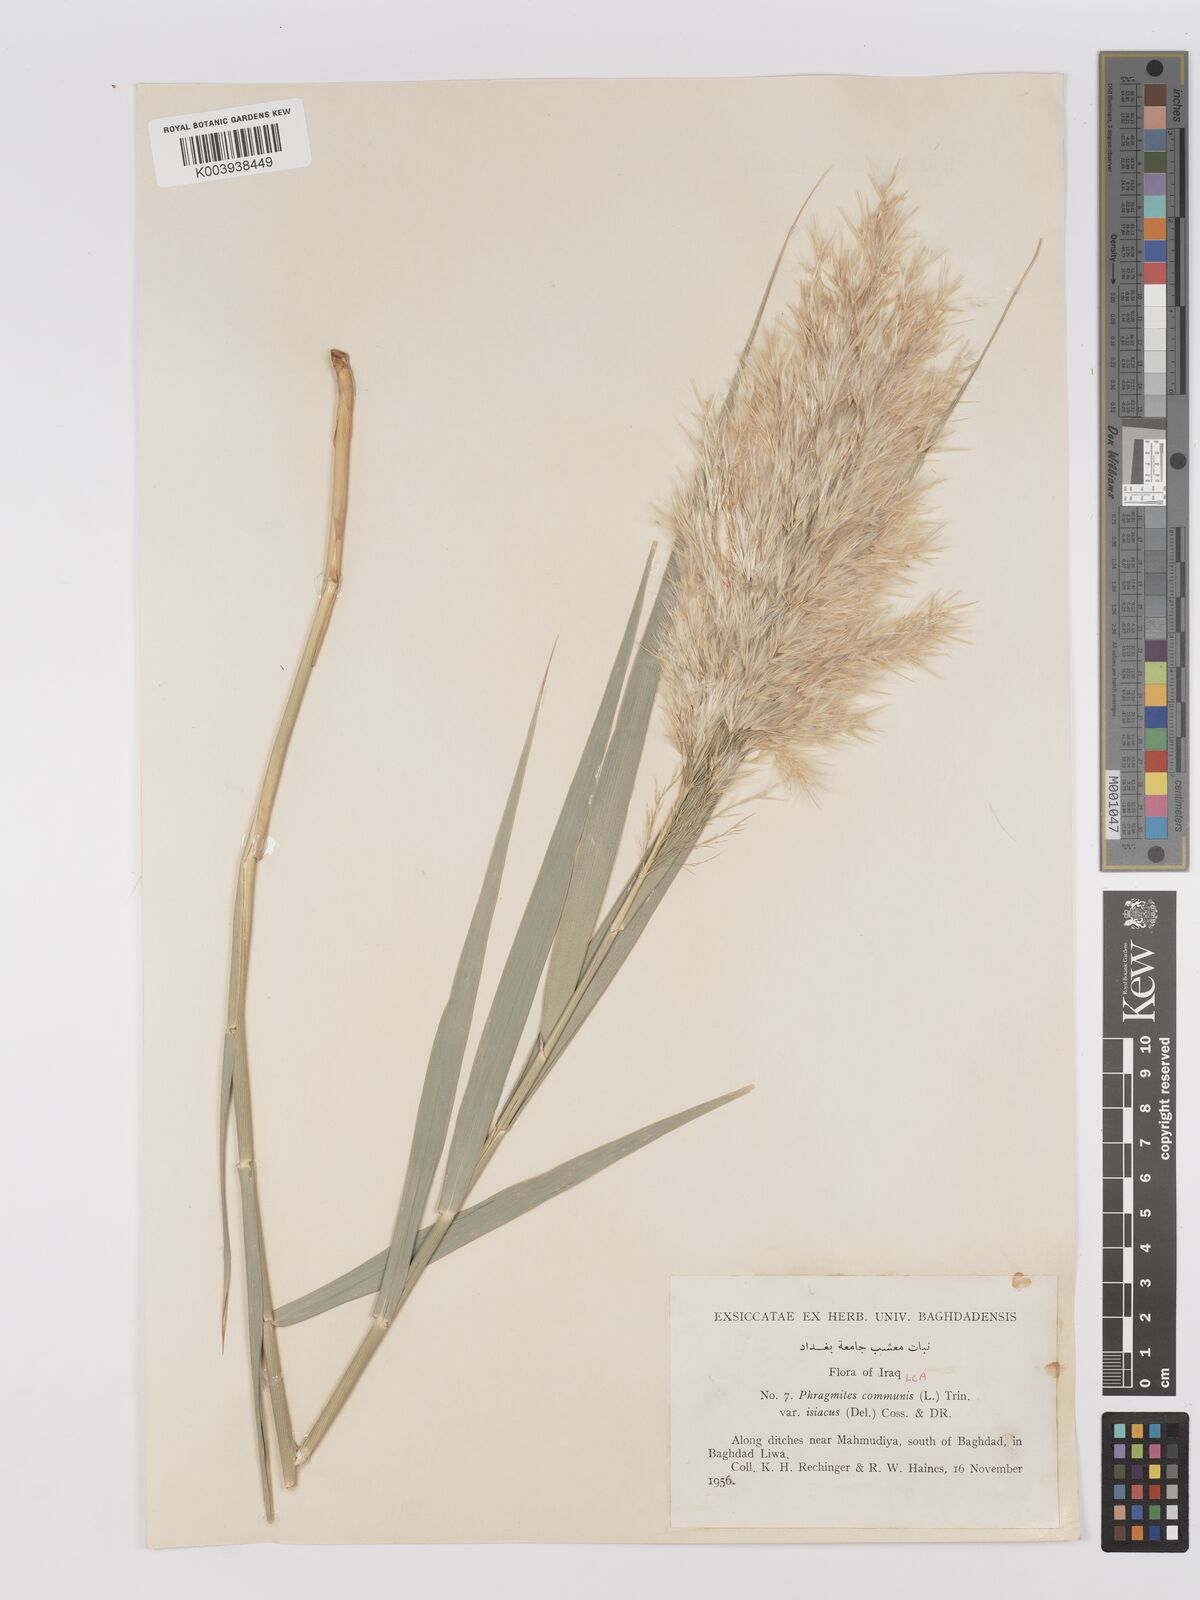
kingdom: Plantae
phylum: Tracheophyta
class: Liliopsida
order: Poales
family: Poaceae
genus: Phragmites
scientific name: Phragmites australis
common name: Common reed
